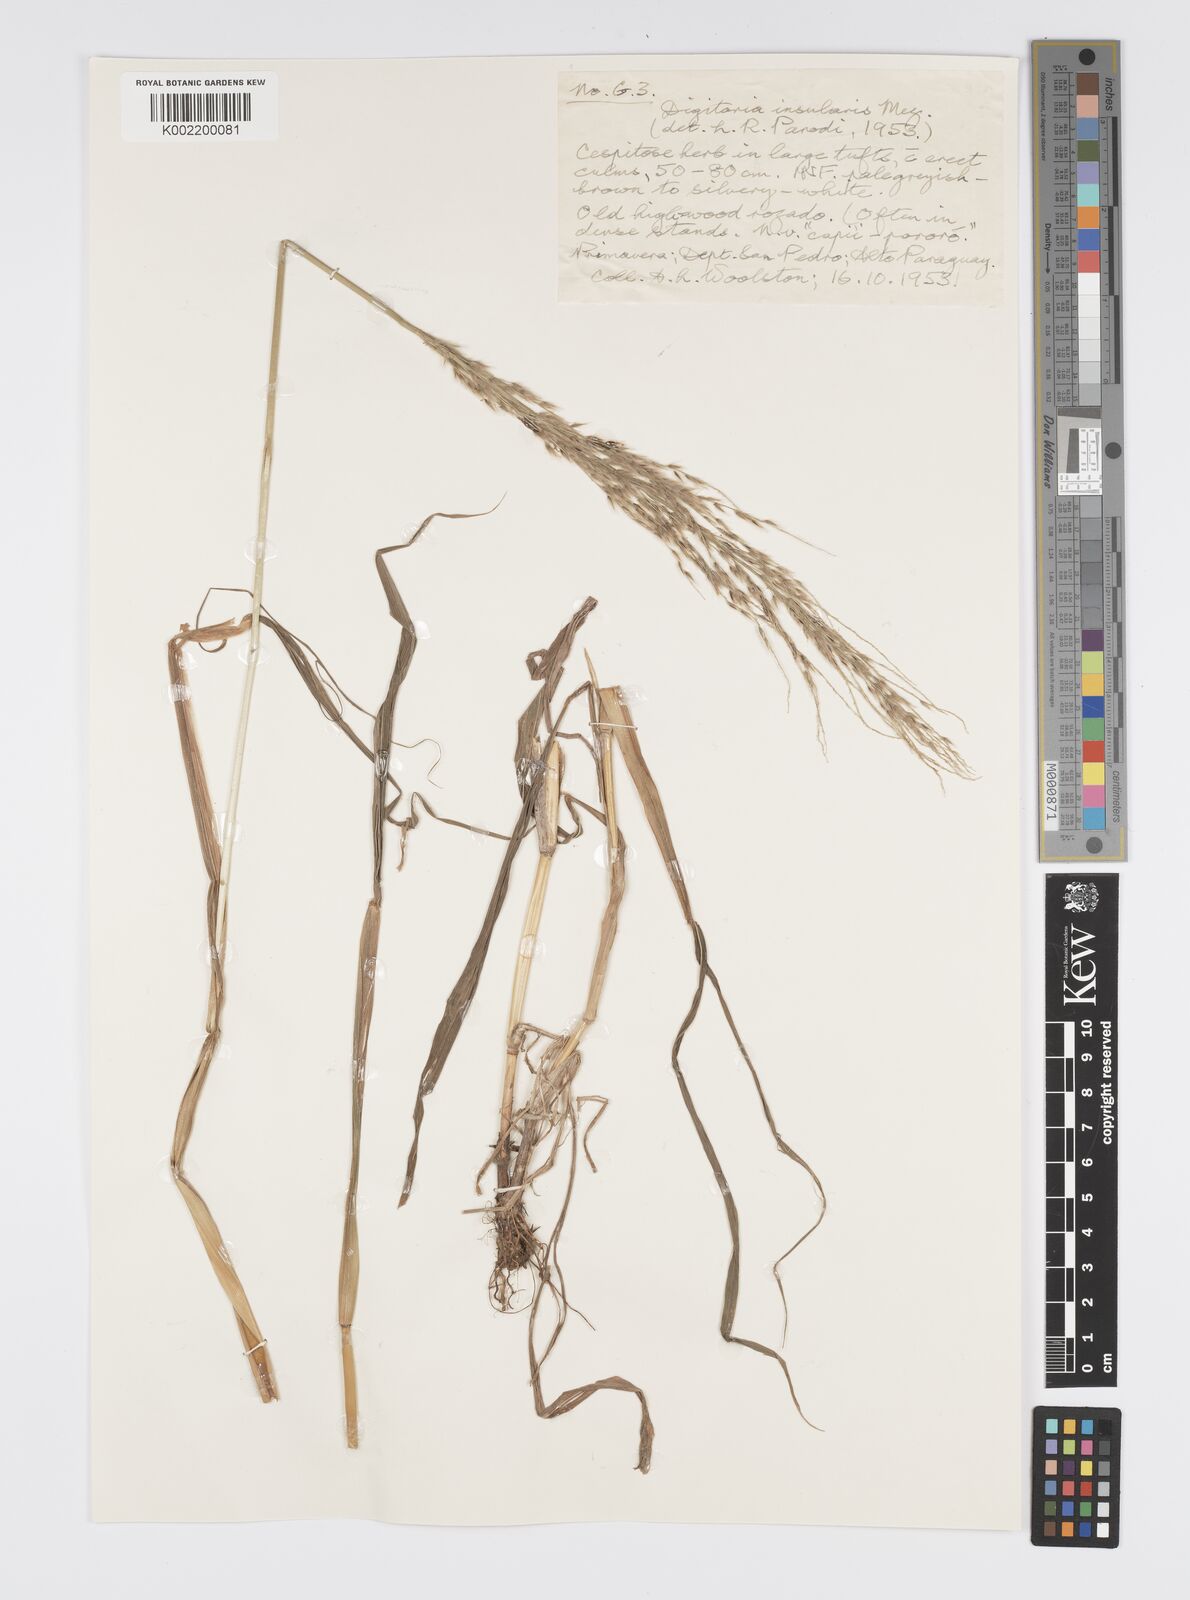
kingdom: Plantae
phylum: Tracheophyta
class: Liliopsida
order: Poales
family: Poaceae
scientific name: Poaceae
